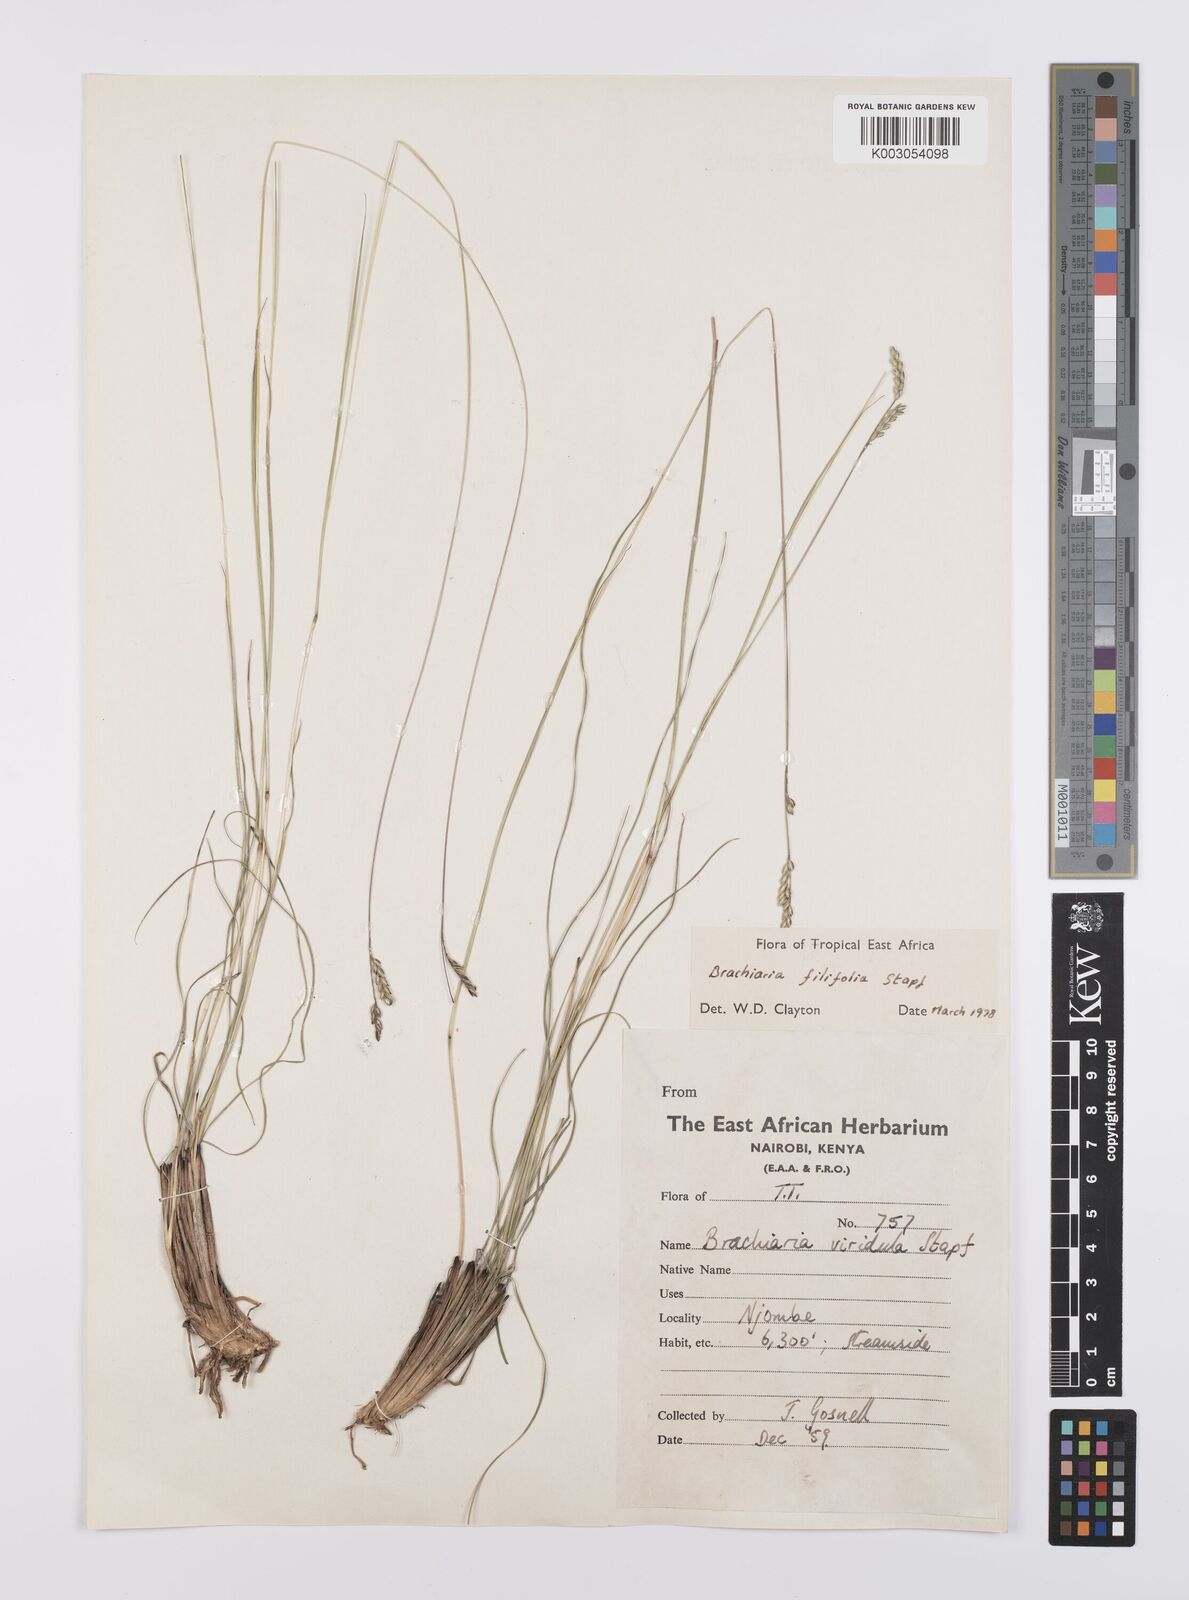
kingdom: Plantae
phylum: Tracheophyta
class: Liliopsida
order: Poales
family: Poaceae
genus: Urochloa
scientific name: Urochloa subulifolia
